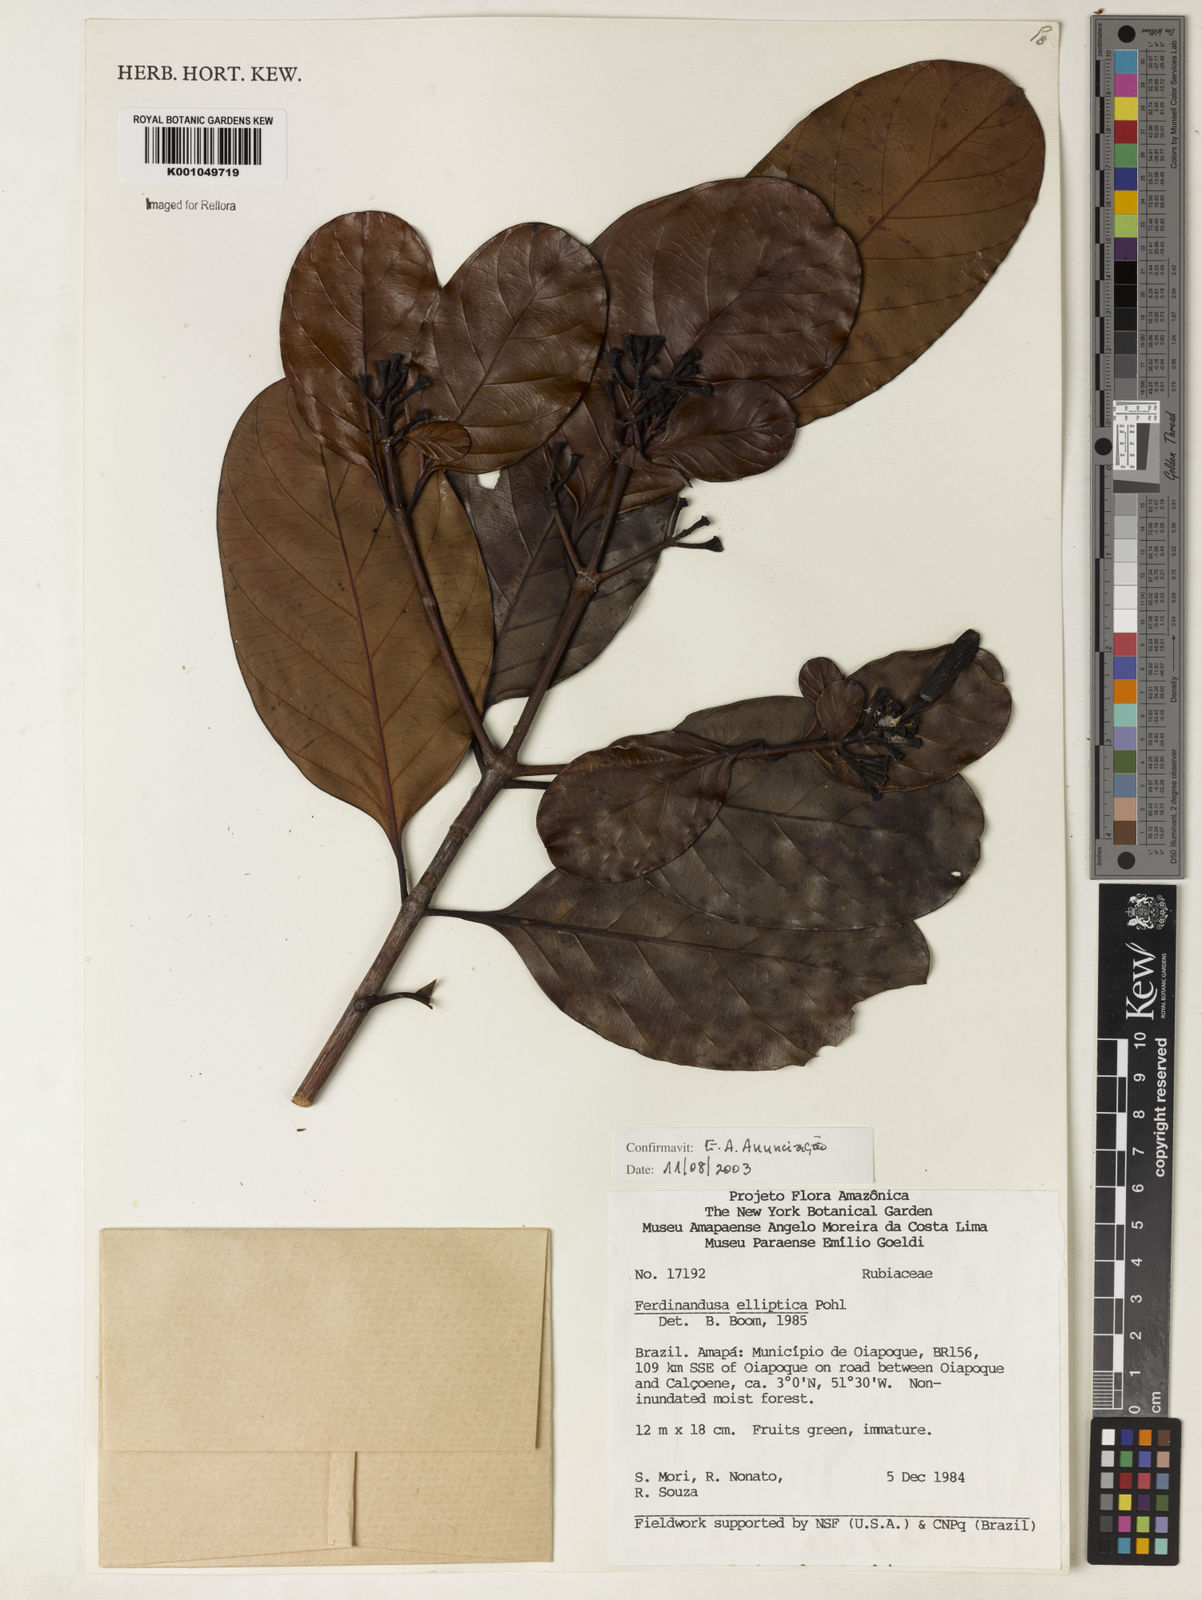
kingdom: Plantae
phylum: Tracheophyta
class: Magnoliopsida
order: Gentianales
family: Rubiaceae
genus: Ferdinandusa
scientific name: Ferdinandusa elliptica
